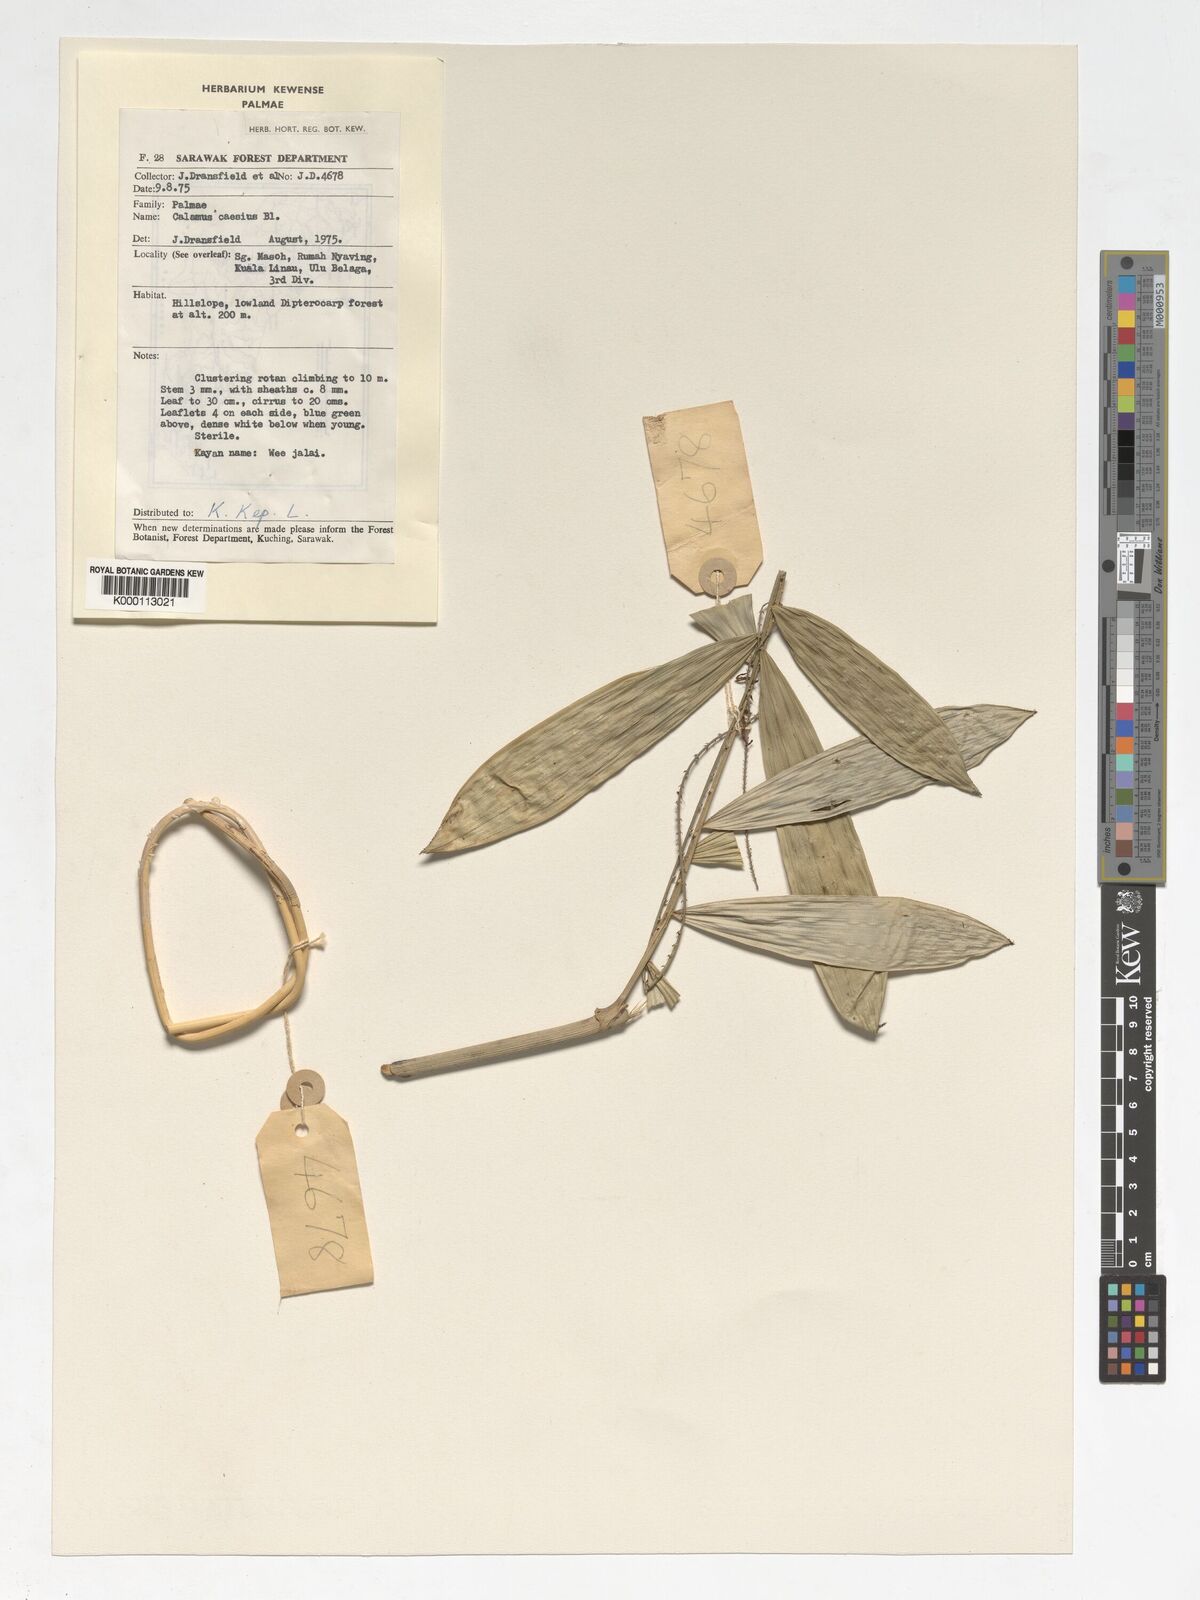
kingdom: Plantae
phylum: Tracheophyta
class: Liliopsida
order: Arecales
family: Arecaceae
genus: Calamus
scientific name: Calamus caesius
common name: Rattan palm
